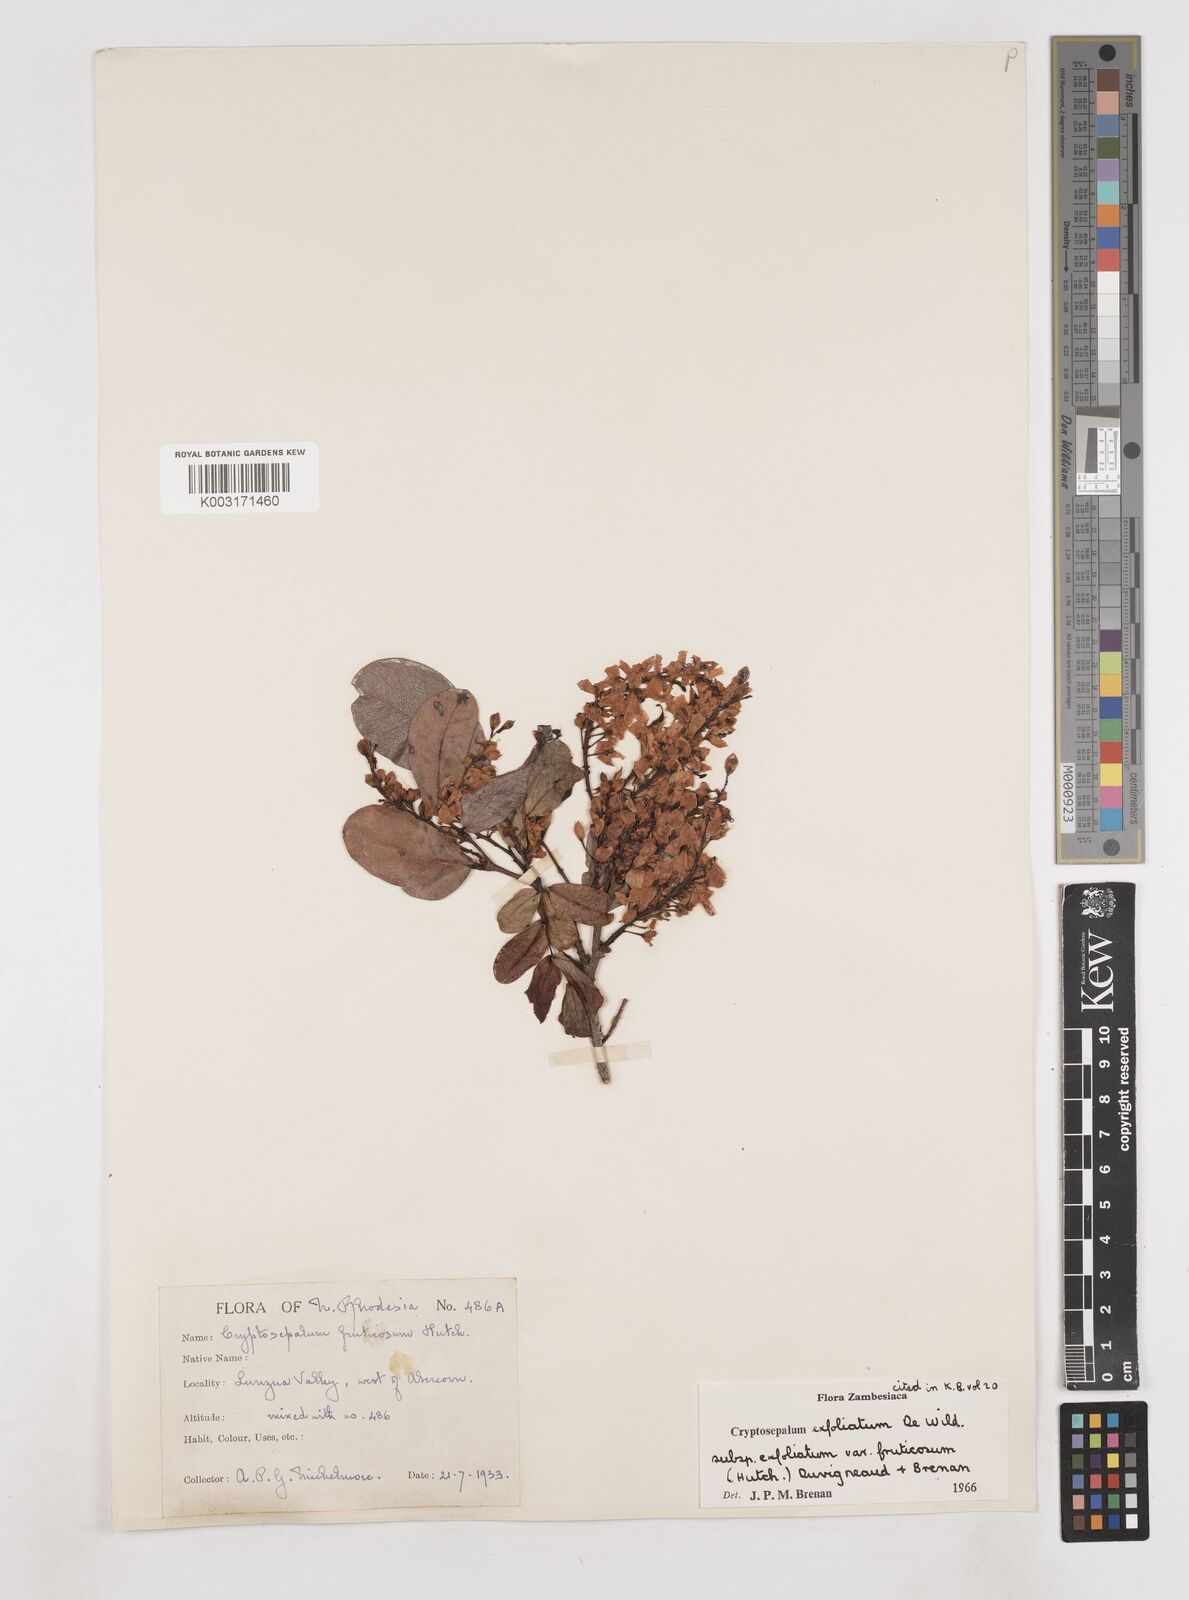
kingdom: Plantae
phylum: Tracheophyta
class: Magnoliopsida
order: Fabales
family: Fabaceae
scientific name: Fabaceae
